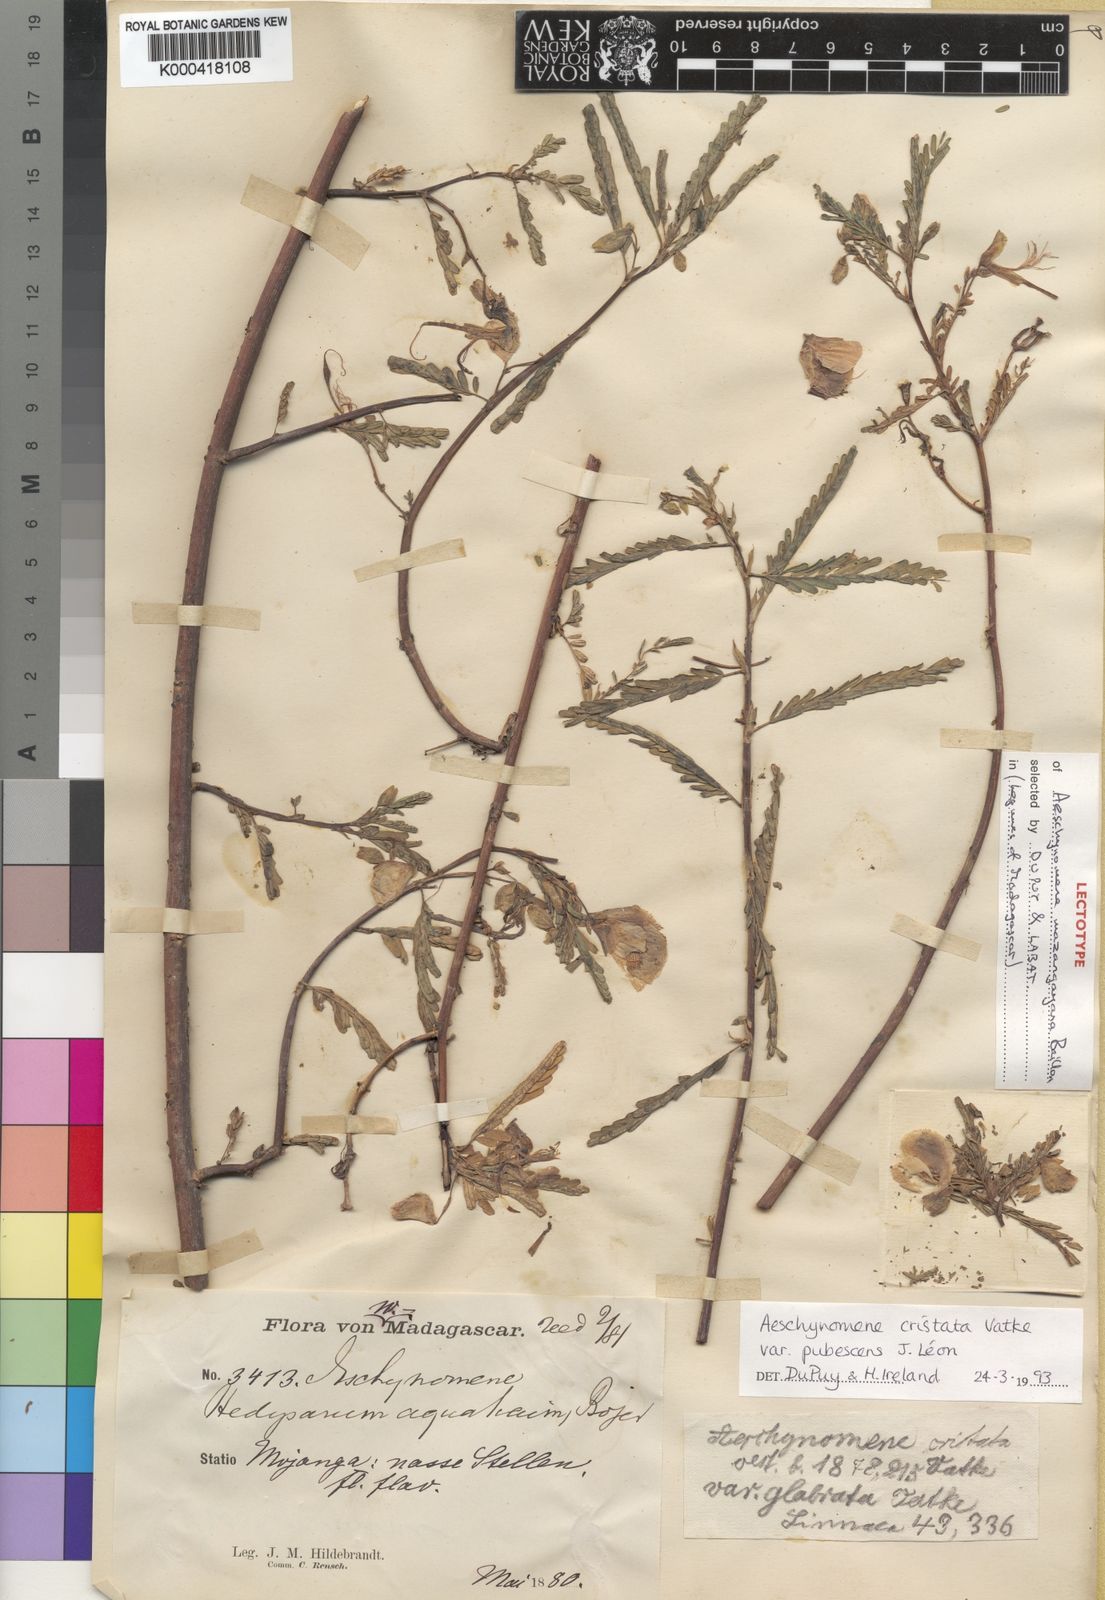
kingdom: Plantae
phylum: Tracheophyta
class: Magnoliopsida
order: Fabales
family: Fabaceae
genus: Aeschynomene
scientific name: Aeschynomene cristata
